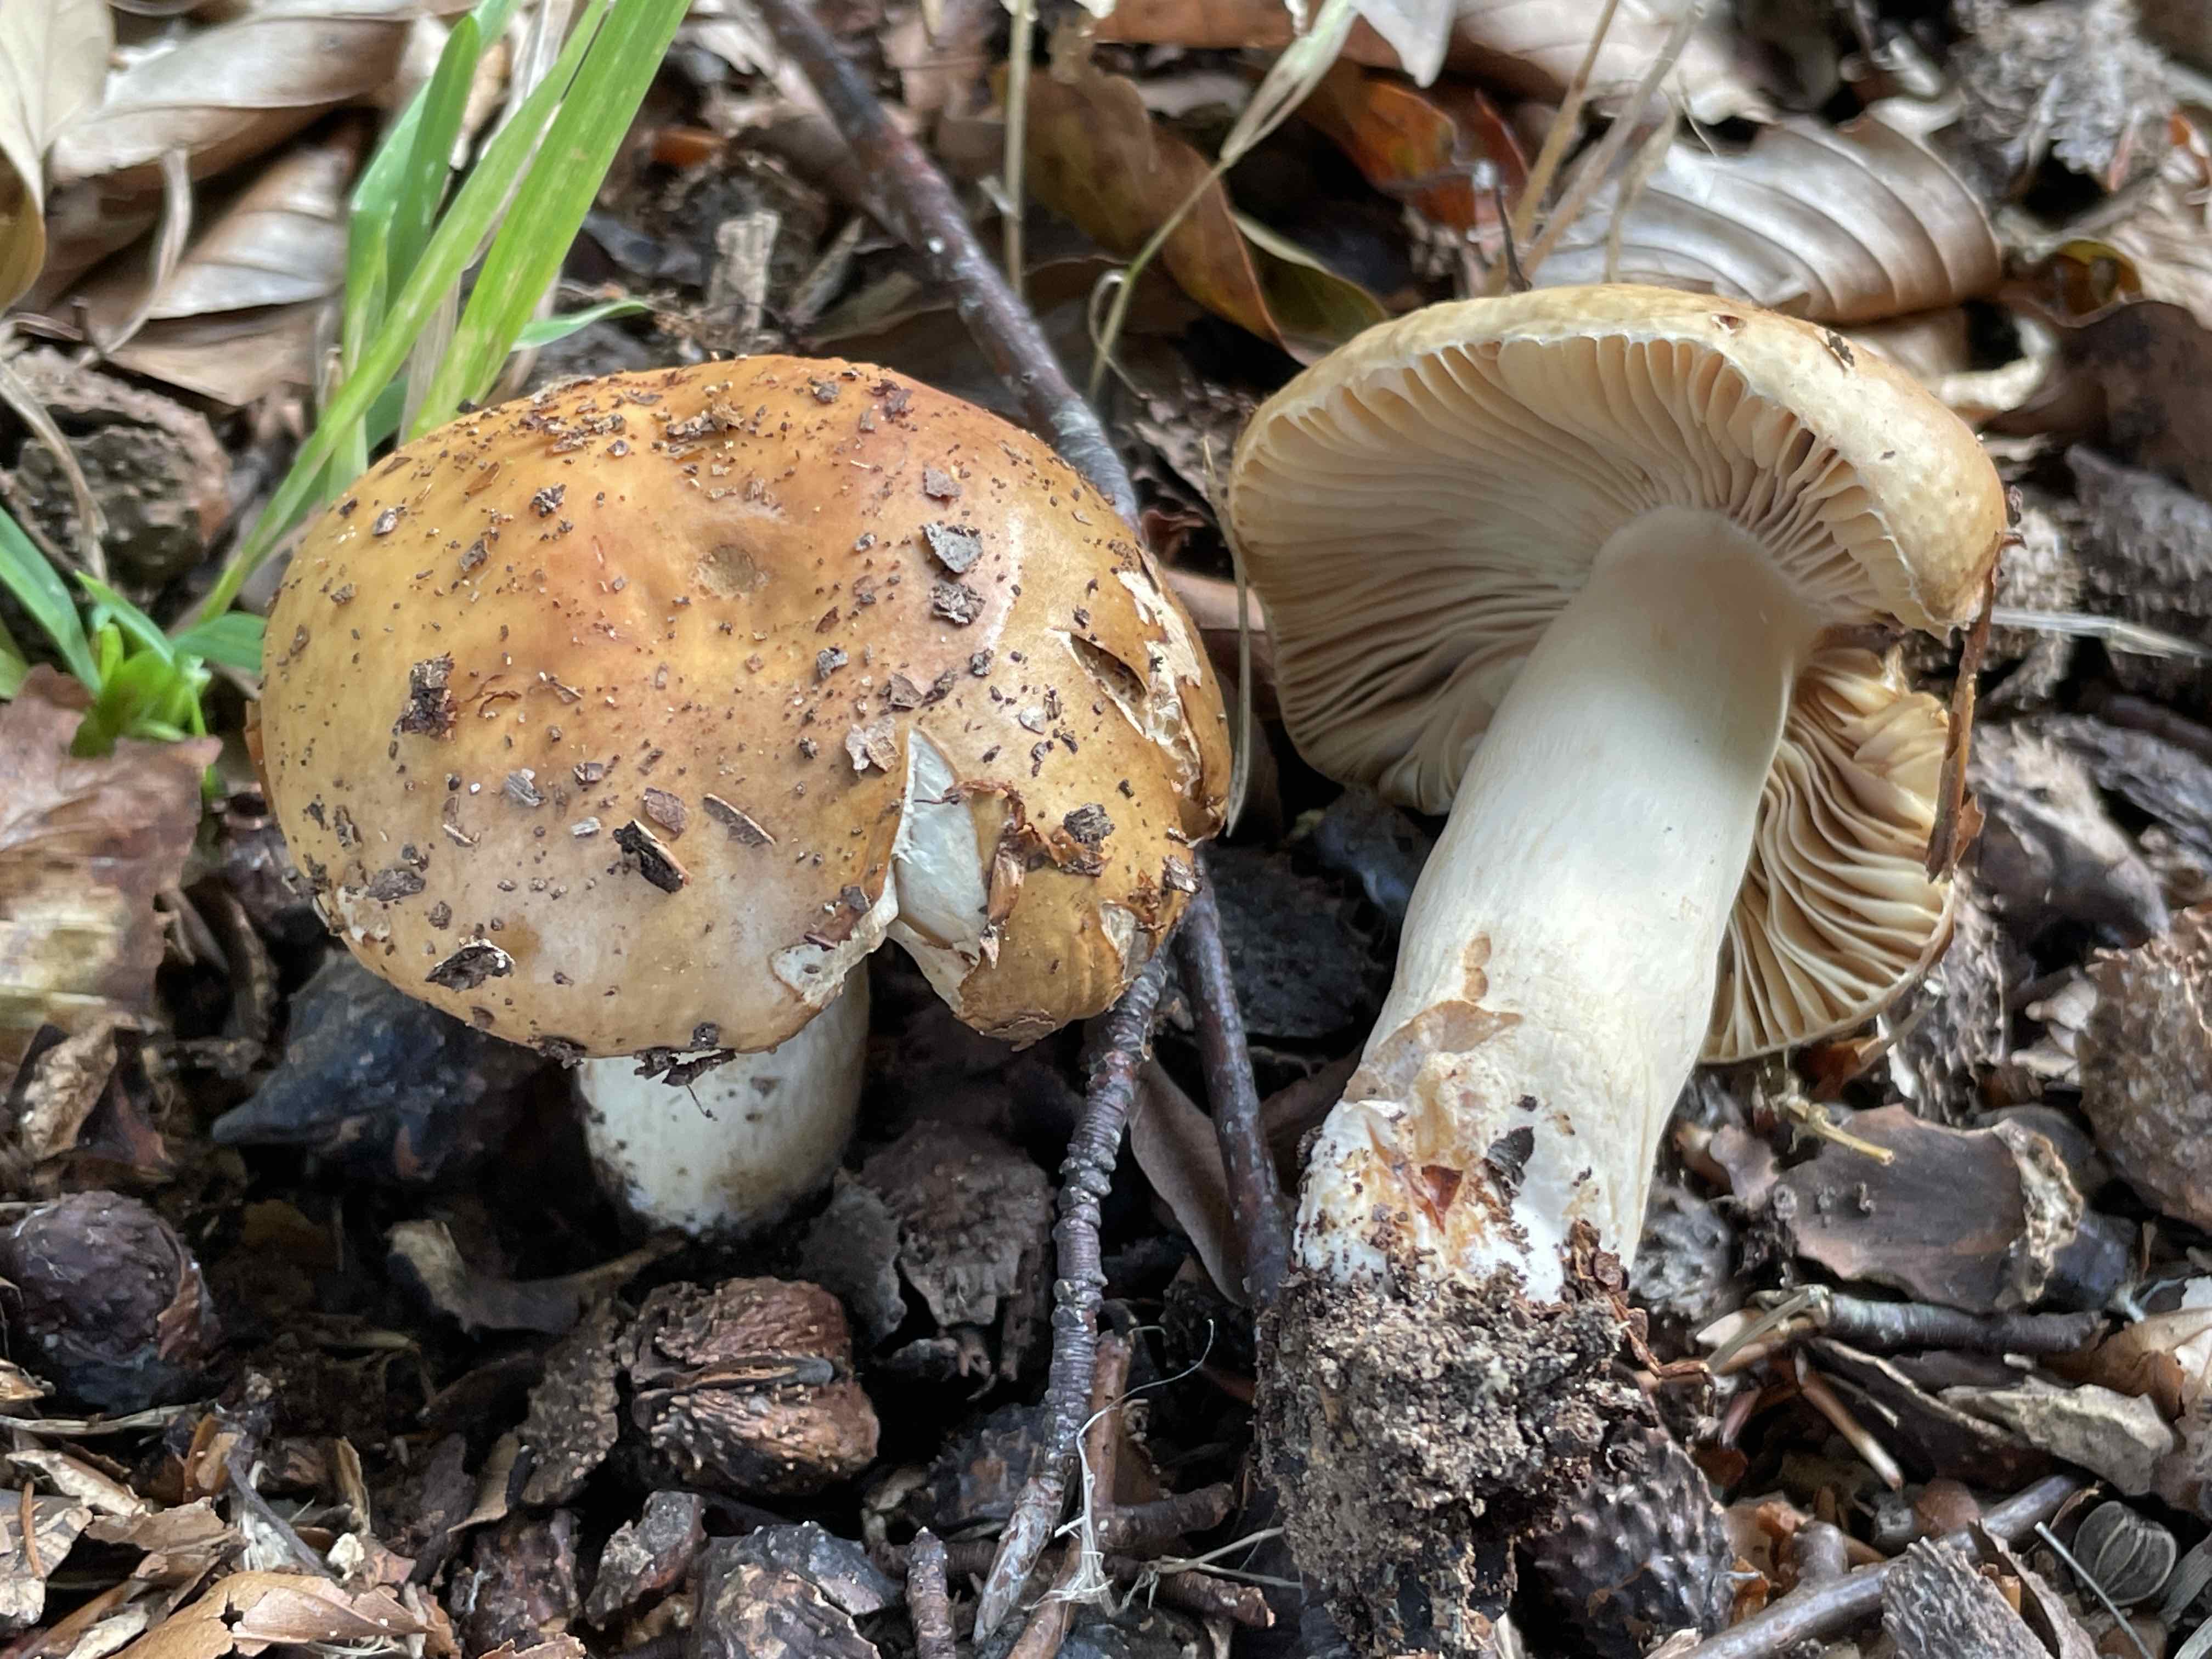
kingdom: Fungi
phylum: Basidiomycota
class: Agaricomycetes
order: Russulales
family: Russulaceae
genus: Russula
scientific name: Russula fellea
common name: galde-skørhat
